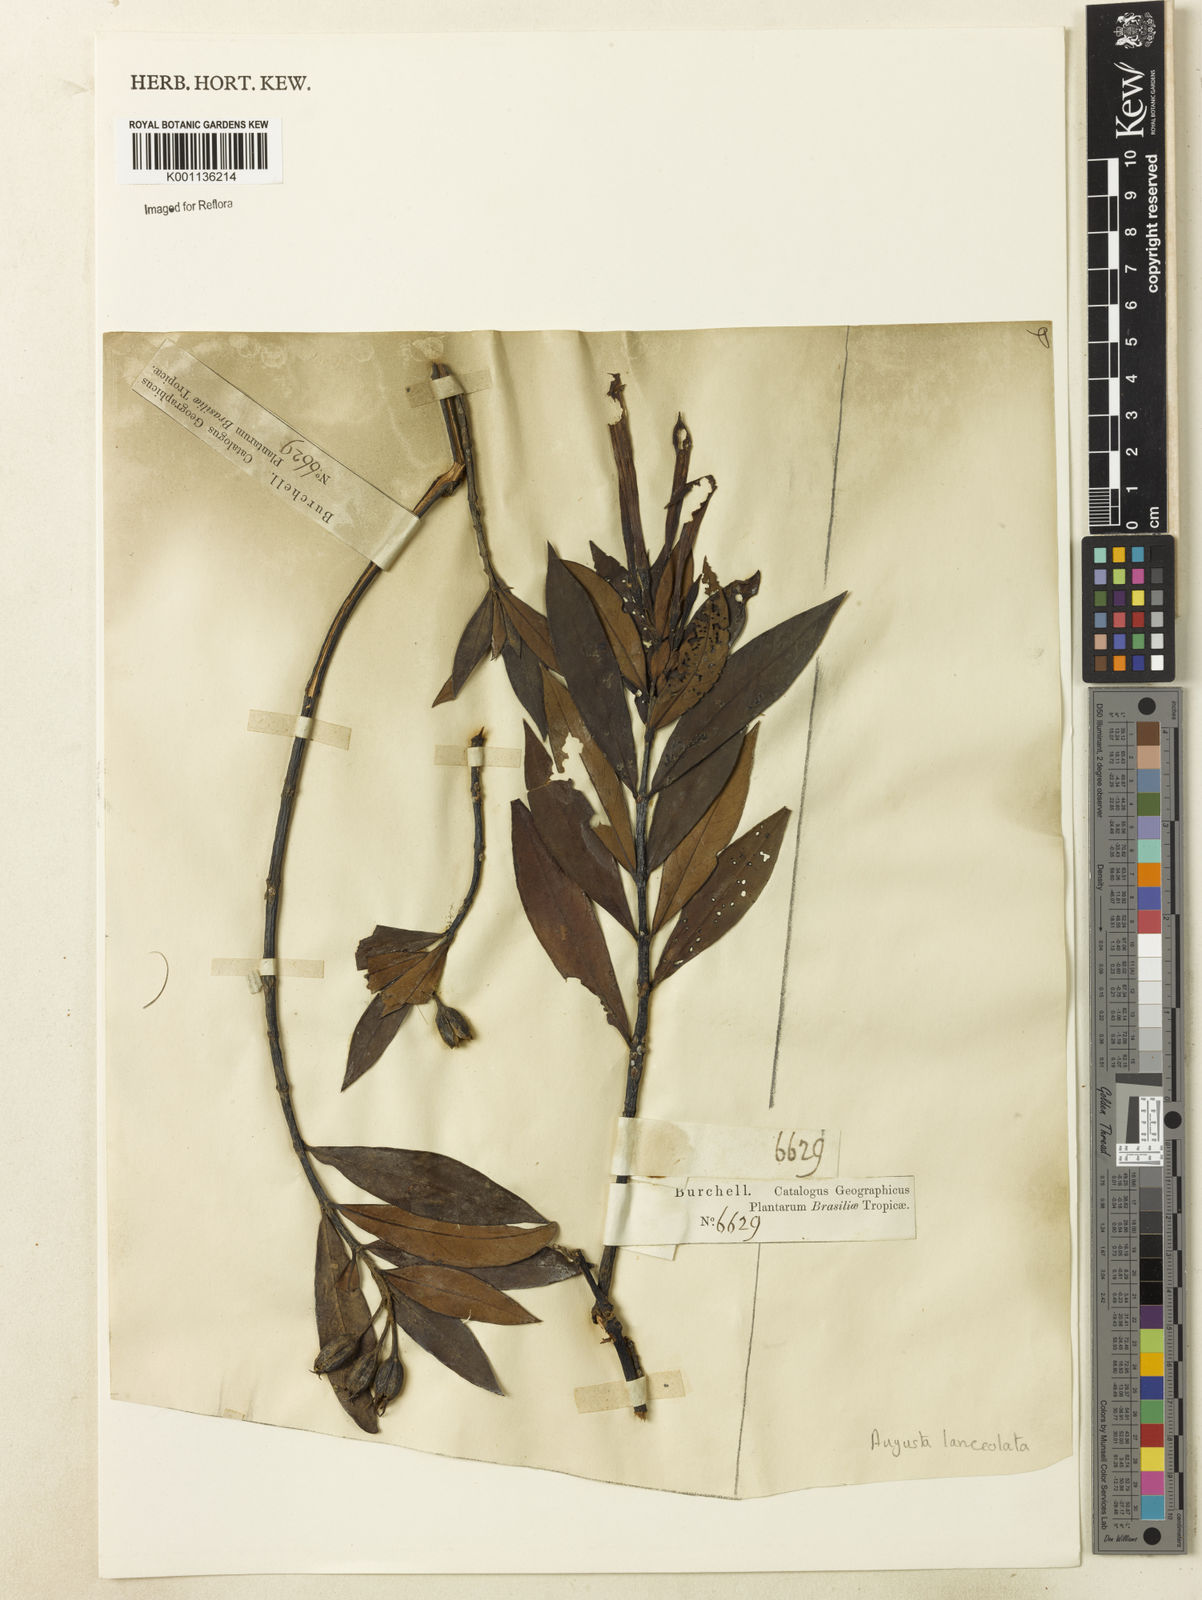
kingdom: Plantae
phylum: Tracheophyta
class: Magnoliopsida
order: Gentianales
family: Rubiaceae
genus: Augusta
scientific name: Augusta longifolia
